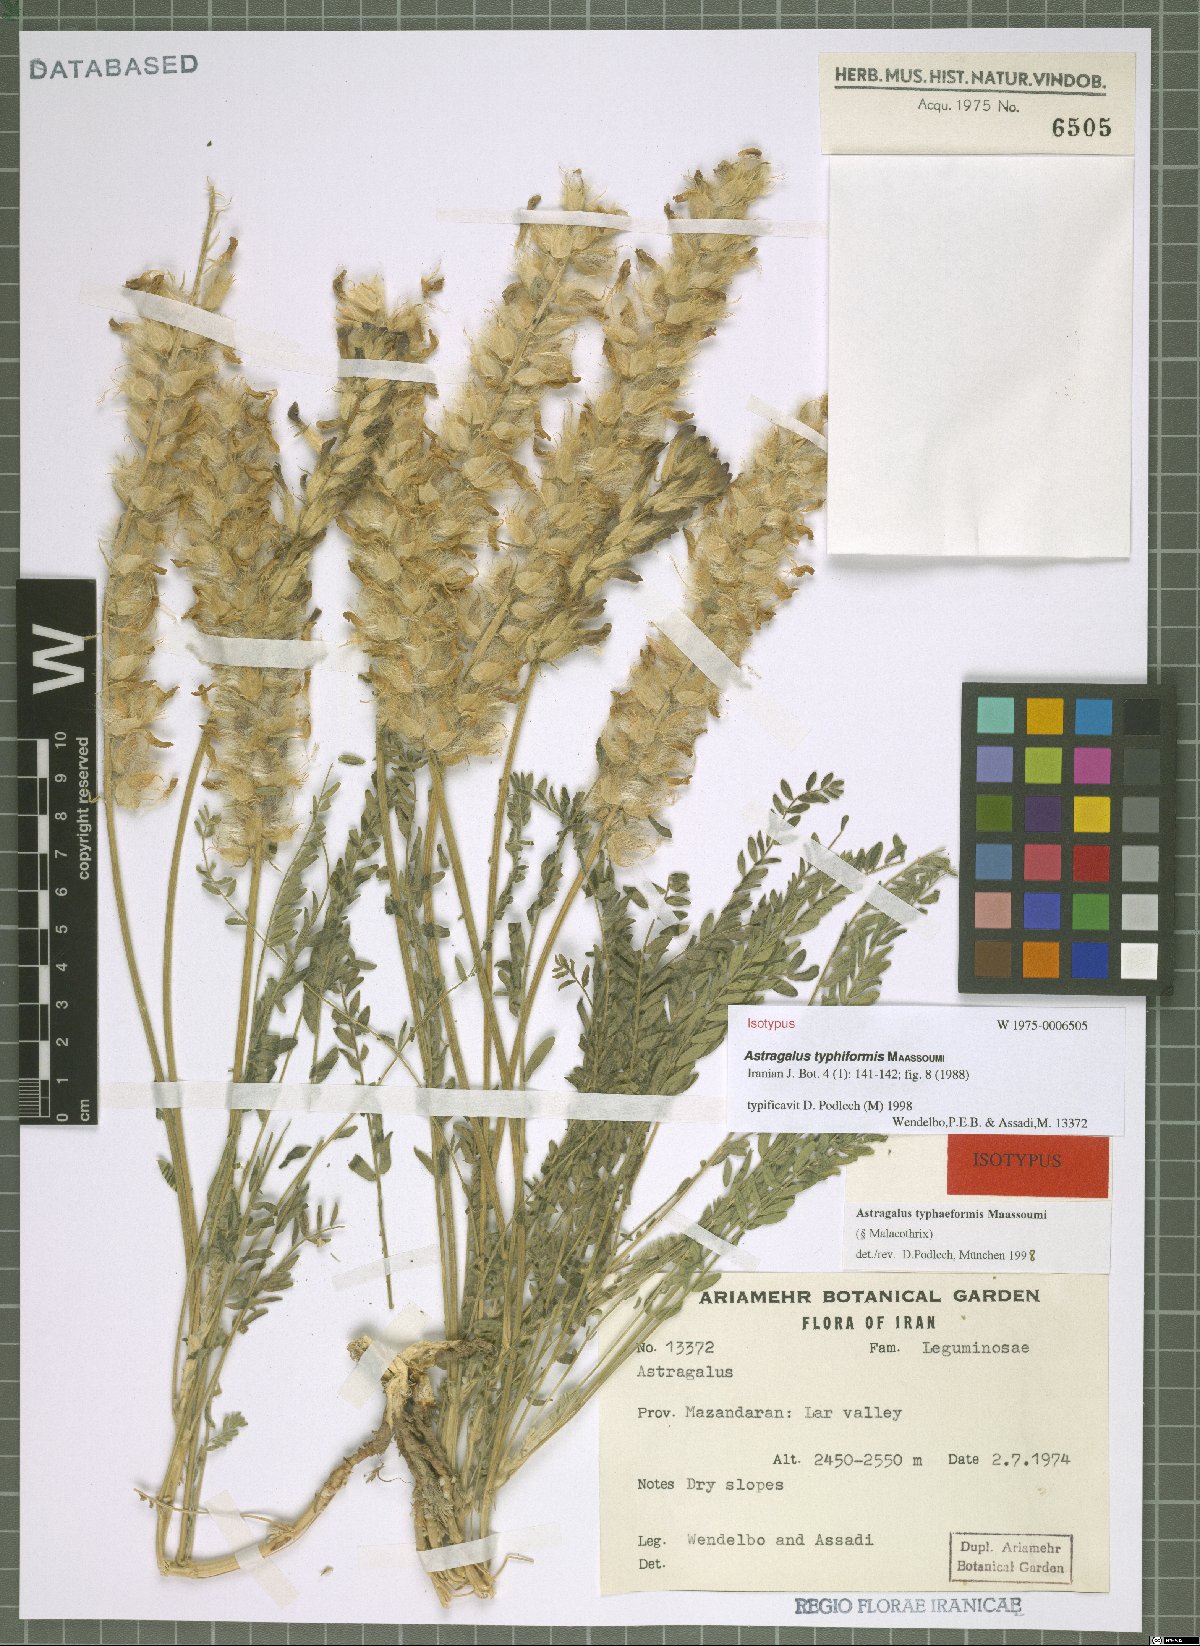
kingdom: Plantae
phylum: Tracheophyta
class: Magnoliopsida
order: Fabales
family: Fabaceae
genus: Astragalus
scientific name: Astragalus typhiformis
